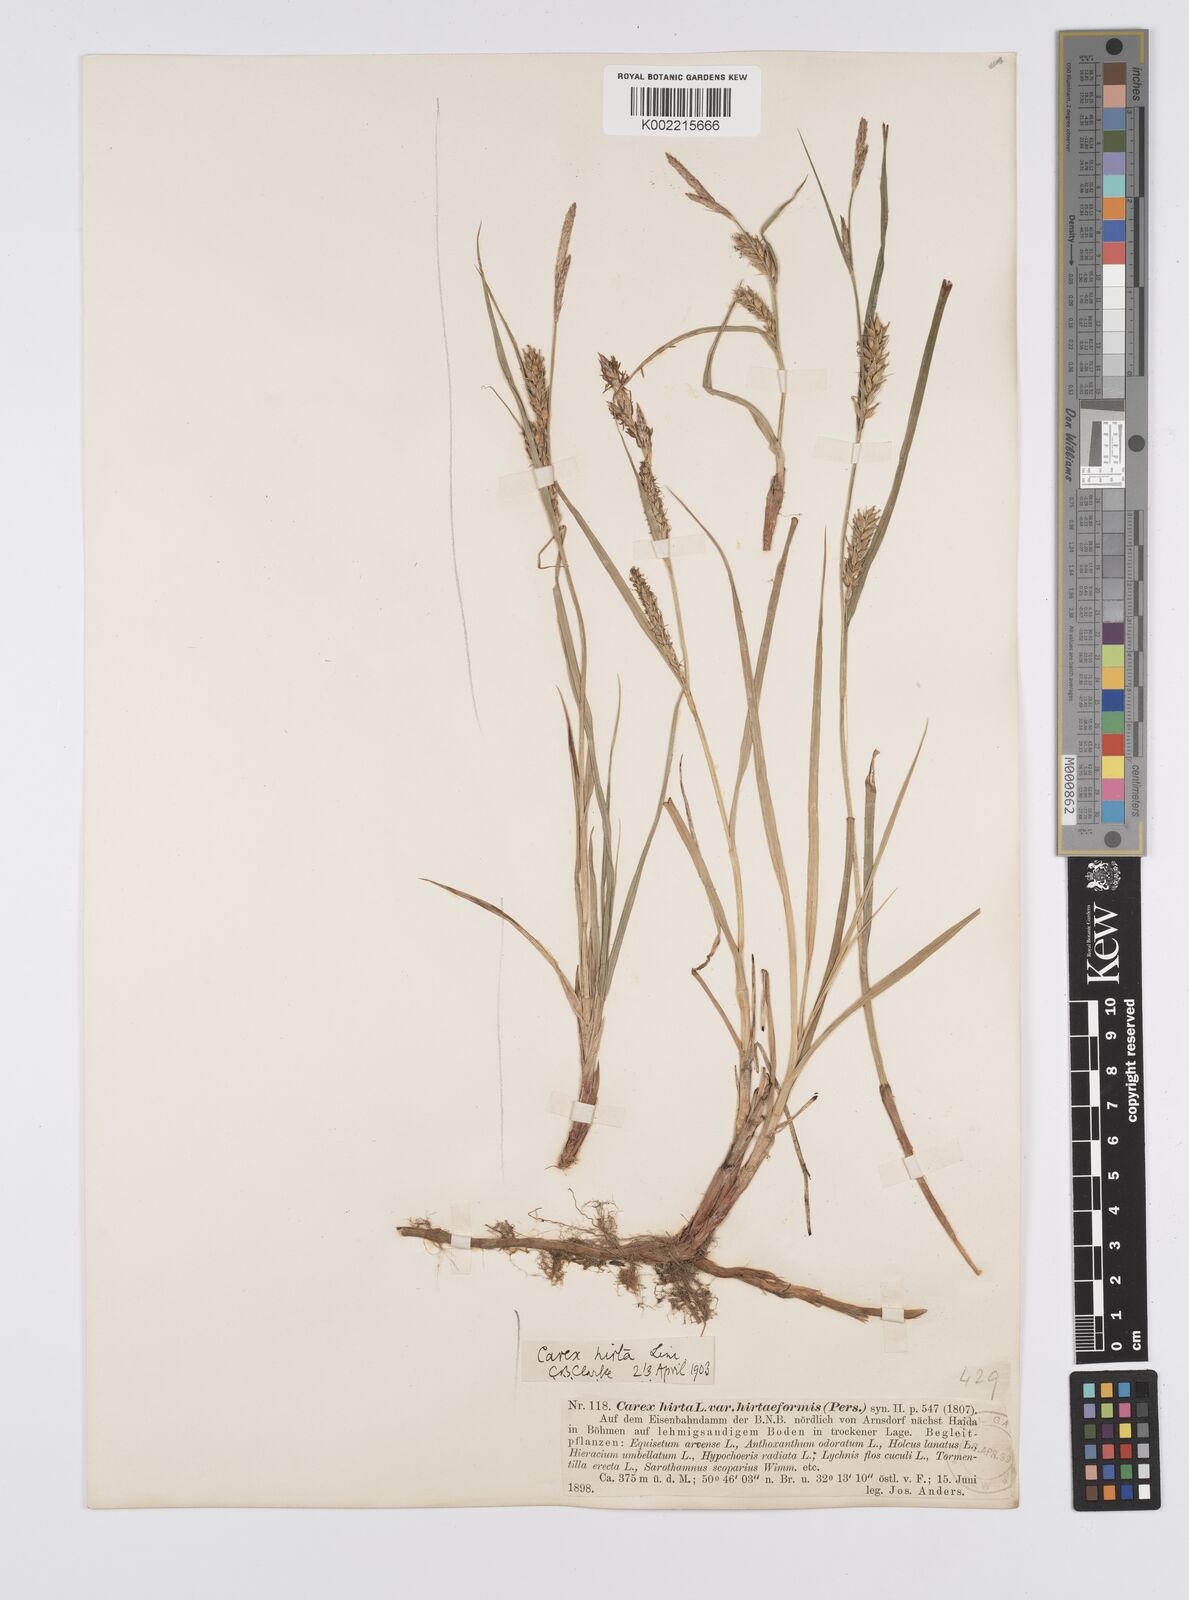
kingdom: Plantae
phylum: Tracheophyta
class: Liliopsida
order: Poales
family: Cyperaceae
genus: Carex
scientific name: Carex hirta
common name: Hairy sedge
